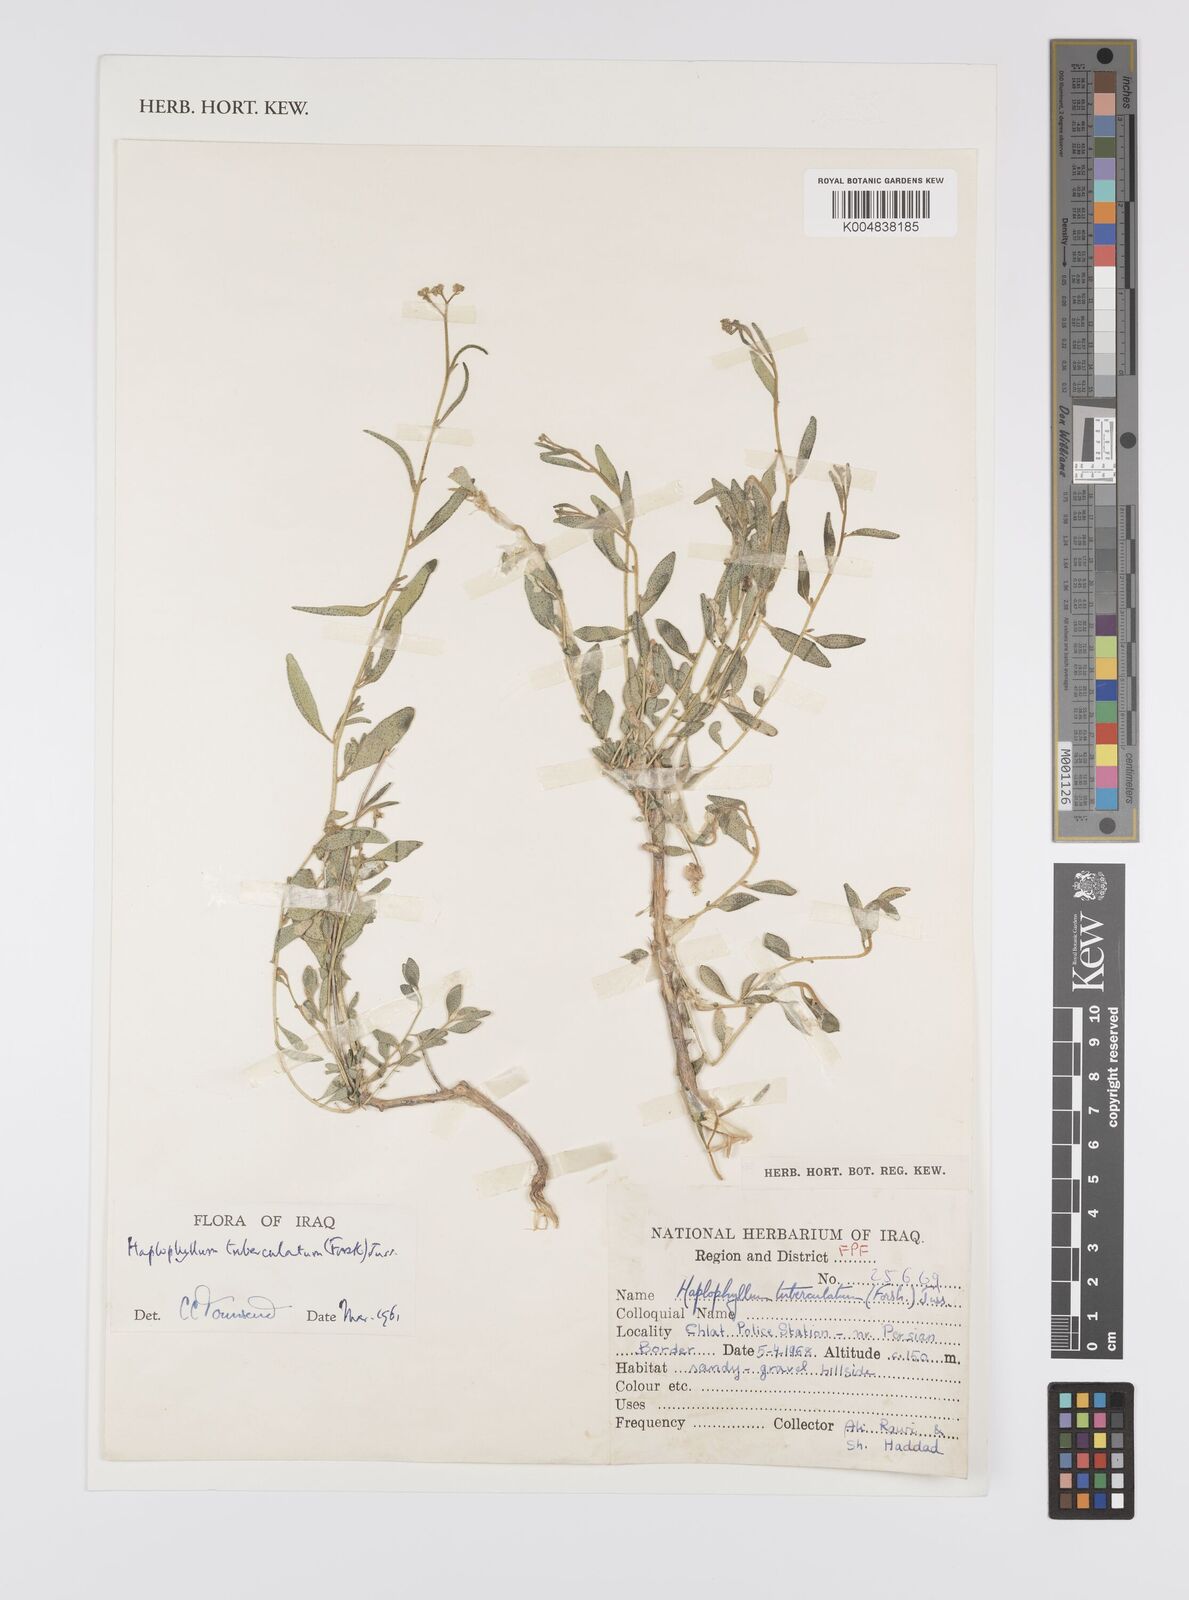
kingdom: Plantae
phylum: Tracheophyta
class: Magnoliopsida
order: Sapindales
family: Rutaceae
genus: Haplophyllum
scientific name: Haplophyllum tuberculatum
